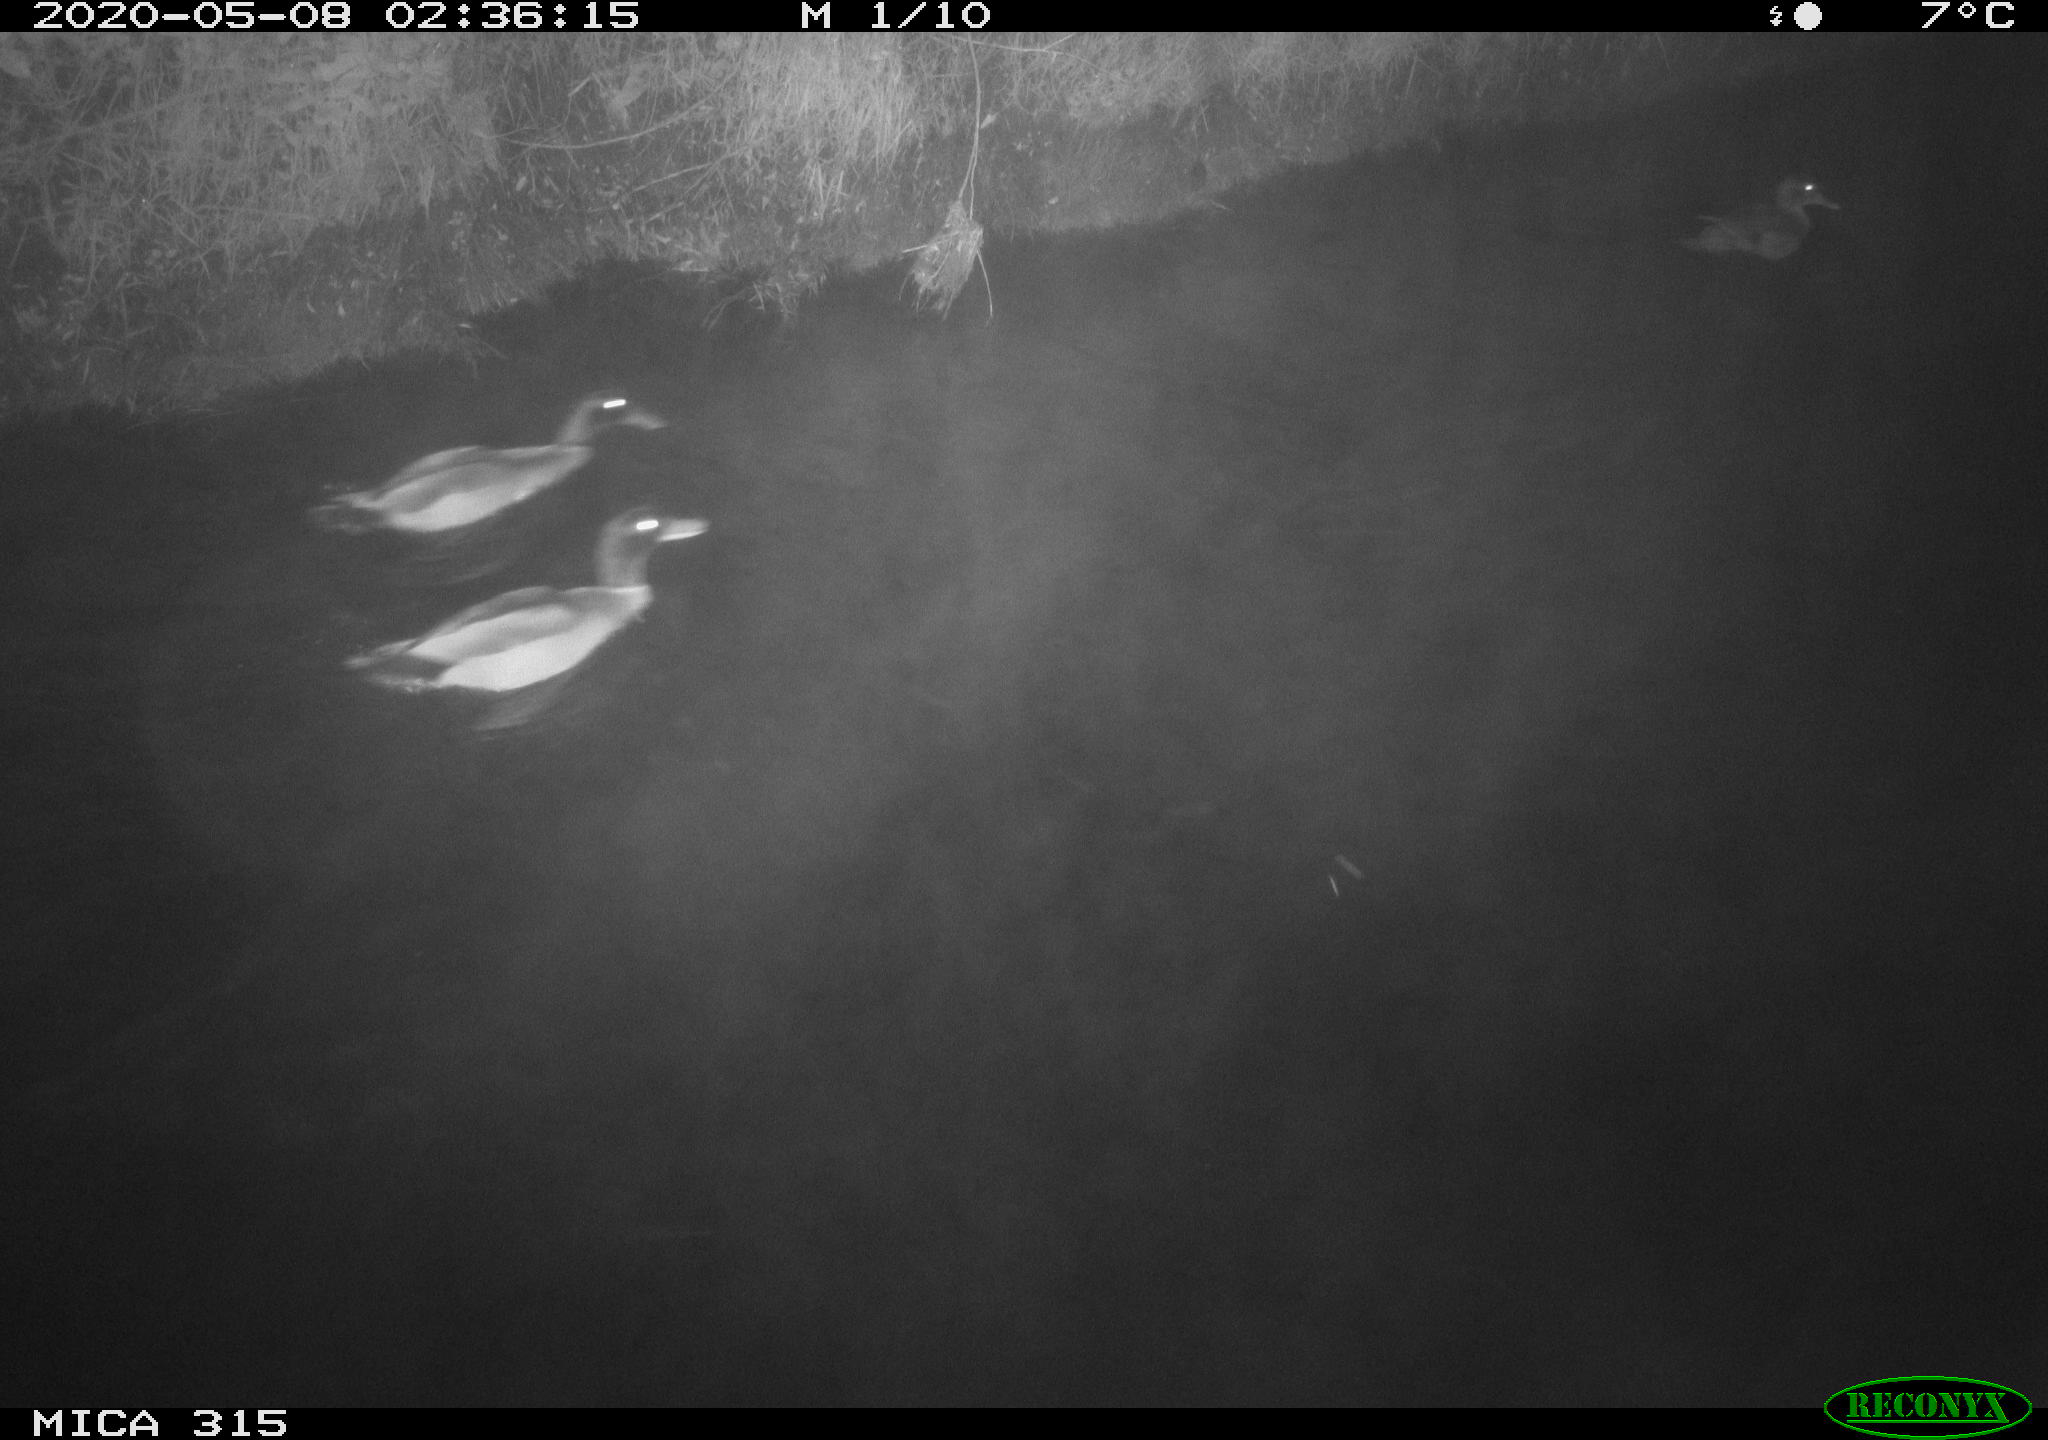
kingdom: Animalia
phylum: Chordata
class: Aves
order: Anseriformes
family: Anatidae
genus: Anas
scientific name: Anas platyrhynchos
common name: Mallard
